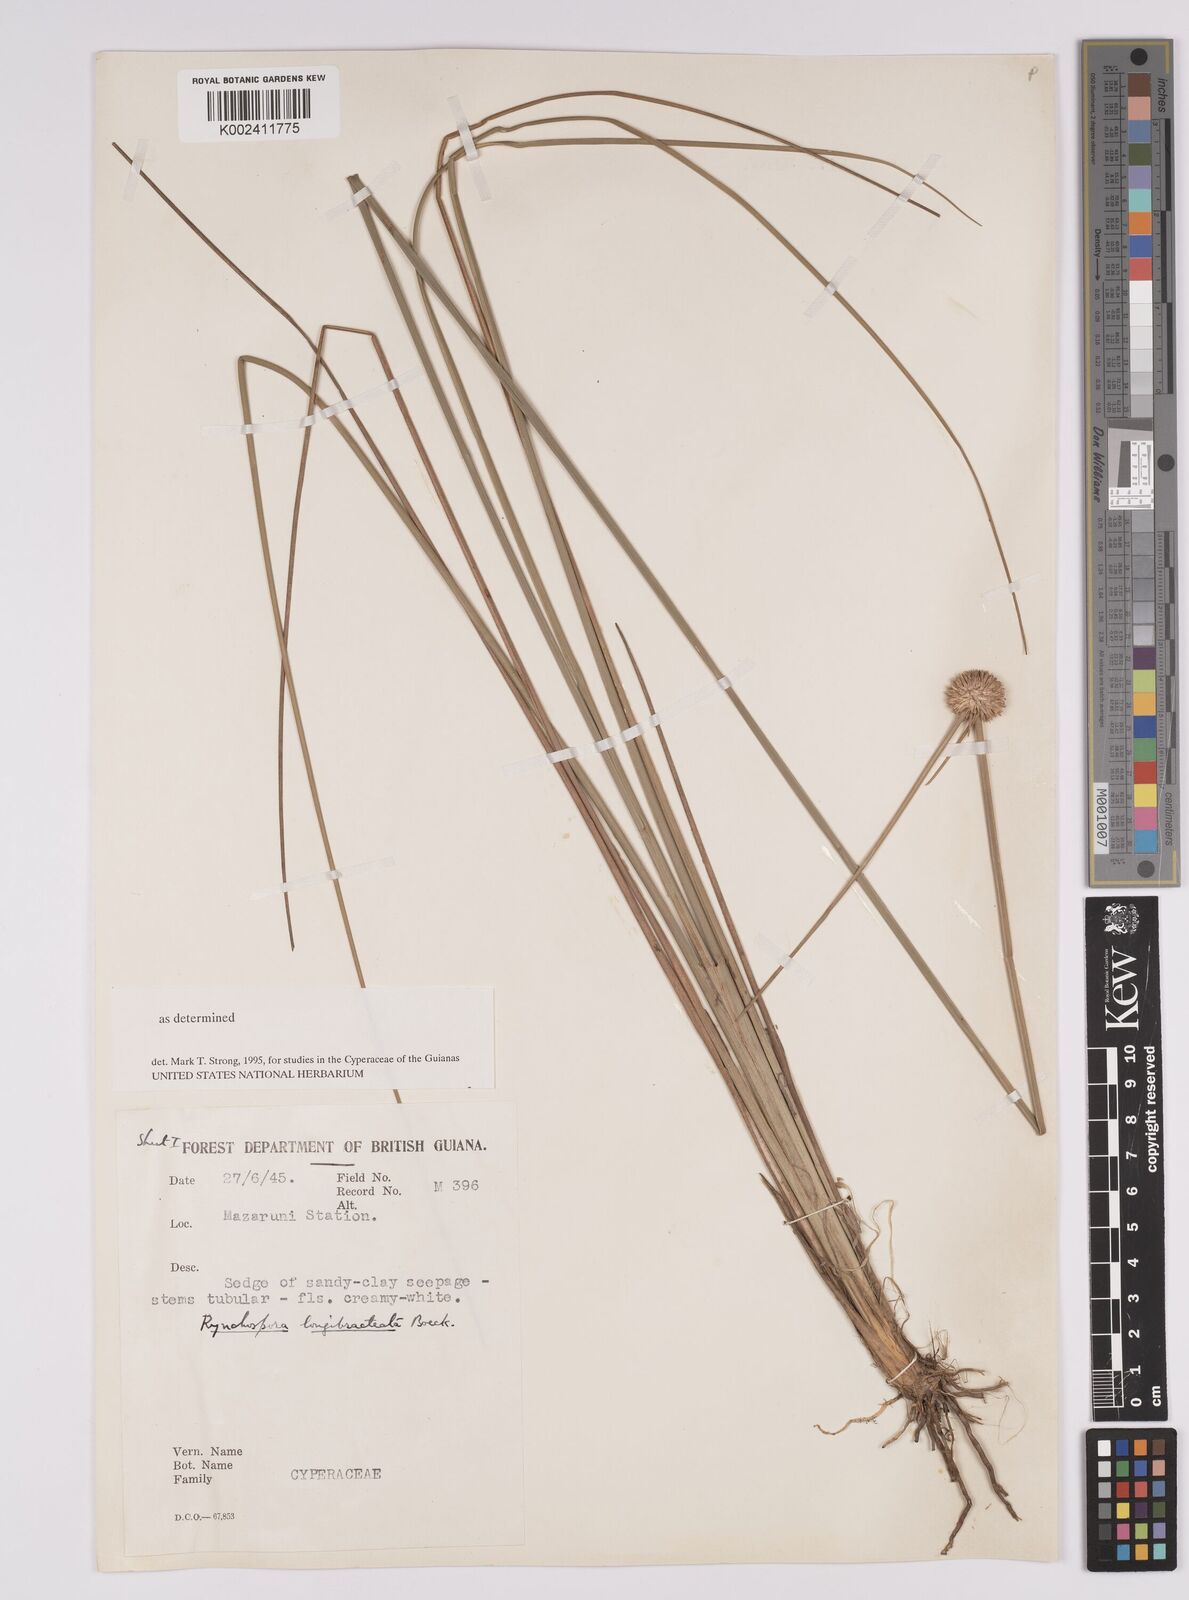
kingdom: Plantae
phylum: Tracheophyta
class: Liliopsida
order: Poales
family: Cyperaceae
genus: Rhynchospora
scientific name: Rhynchospora longibracteata
